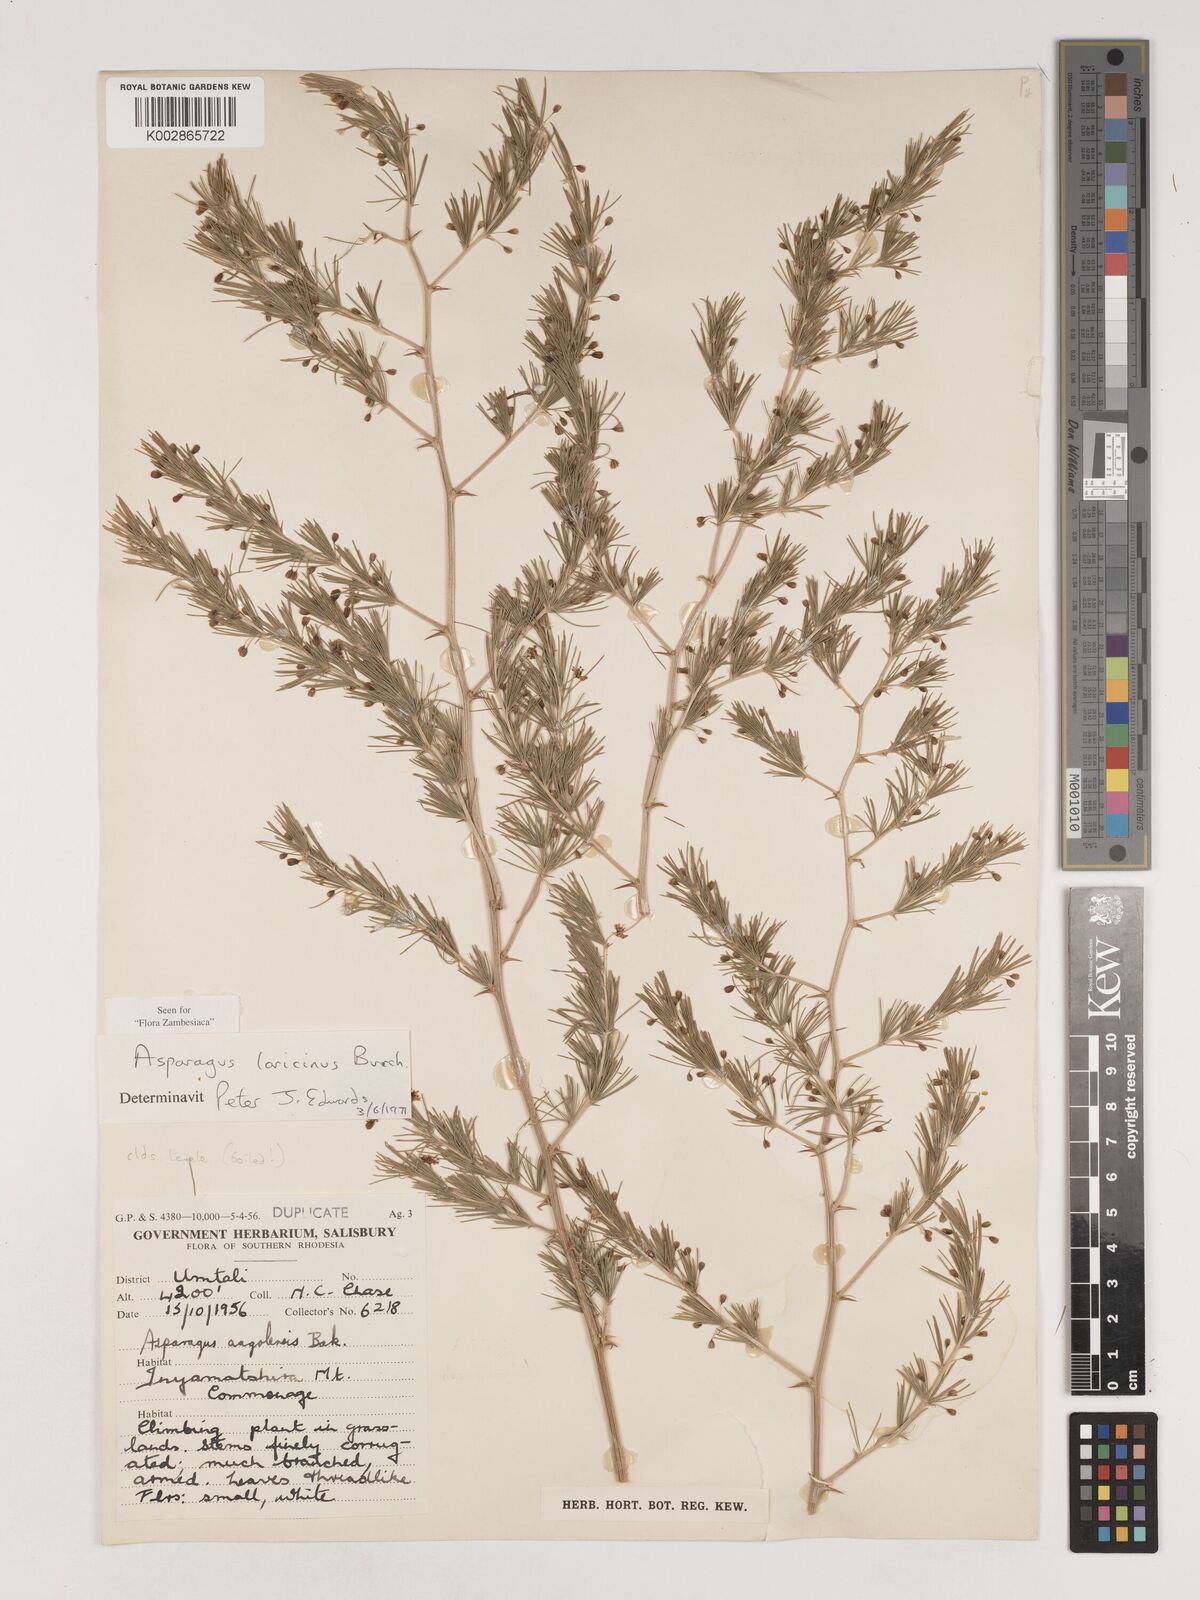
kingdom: Plantae
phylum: Tracheophyta
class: Liliopsida
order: Asparagales
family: Asparagaceae
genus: Asparagus
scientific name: Asparagus laricinus
